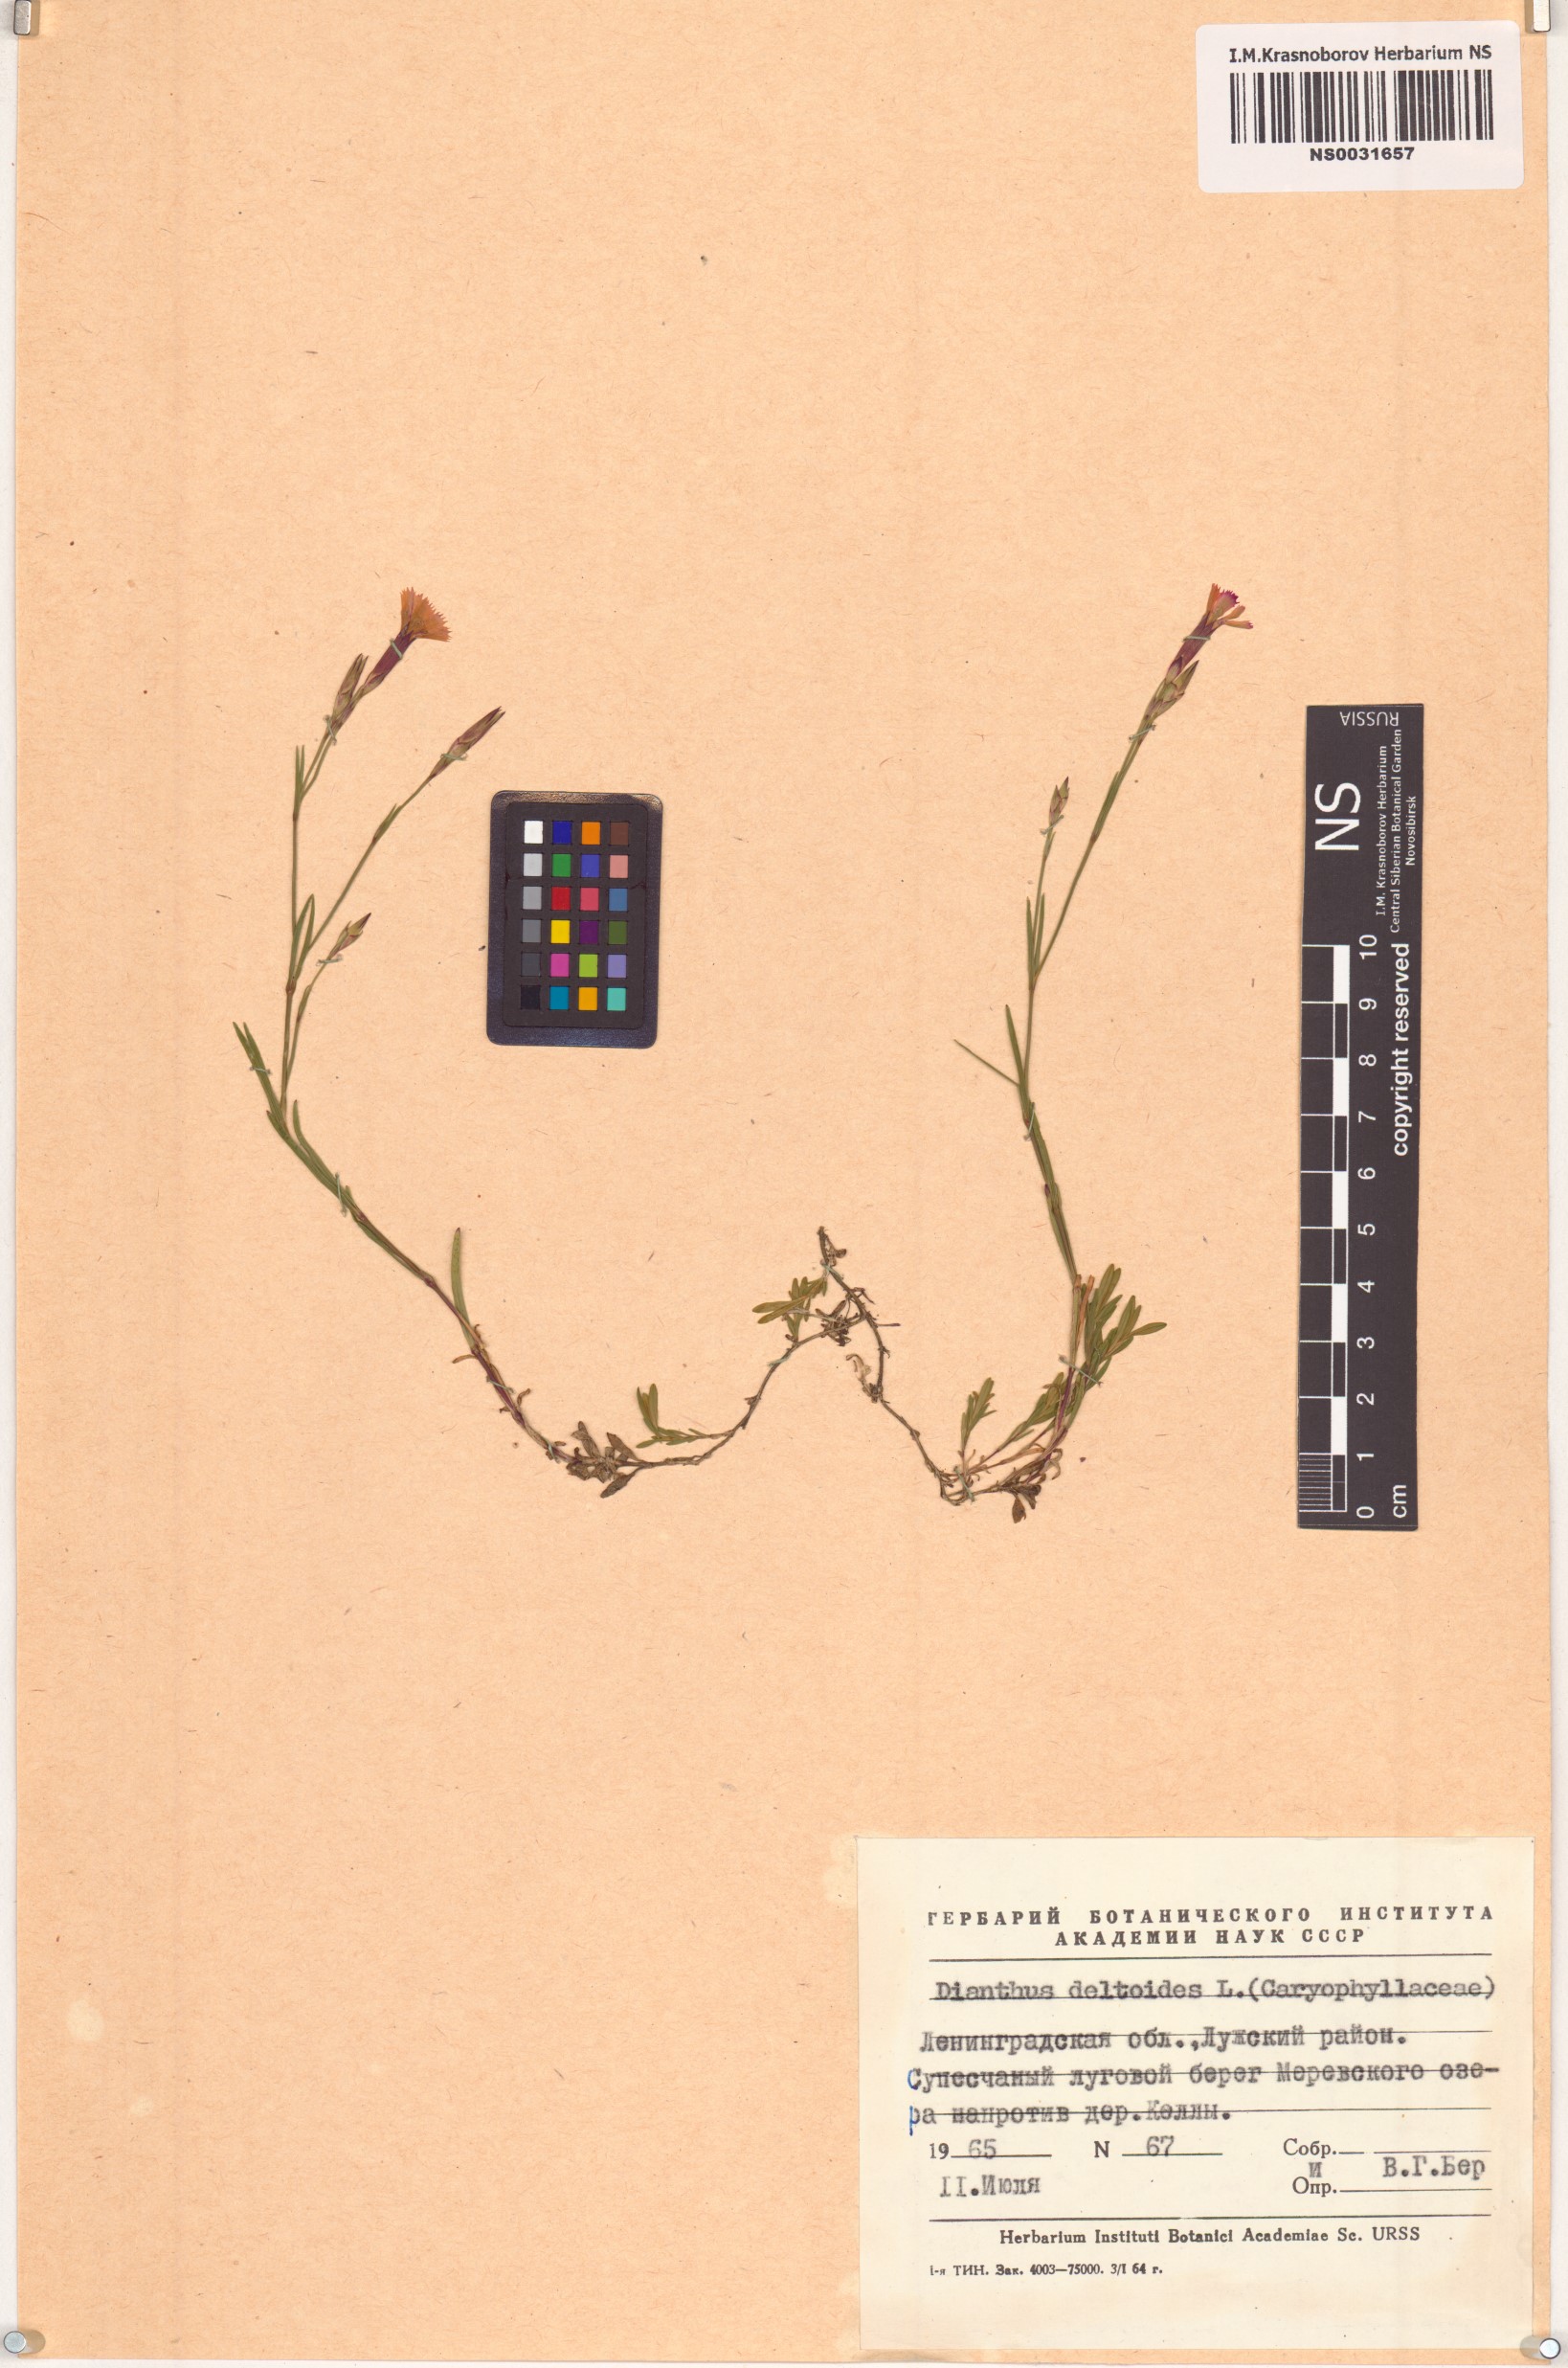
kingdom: Plantae
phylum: Tracheophyta
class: Magnoliopsida
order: Caryophyllales
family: Caryophyllaceae
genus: Dianthus
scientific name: Dianthus deltoides
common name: Maiden pink
